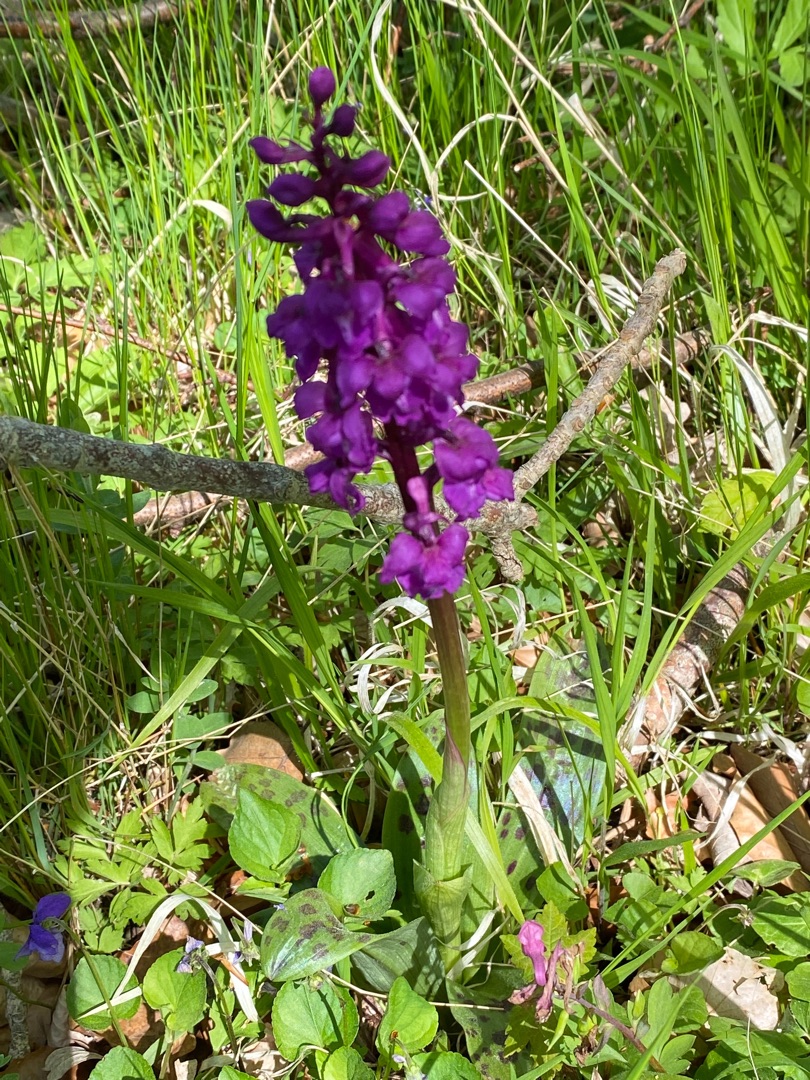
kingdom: Plantae
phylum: Tracheophyta
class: Liliopsida
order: Asparagales
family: Orchidaceae
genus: Orchis
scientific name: Orchis mascula
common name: Tyndakset gøgeurt
